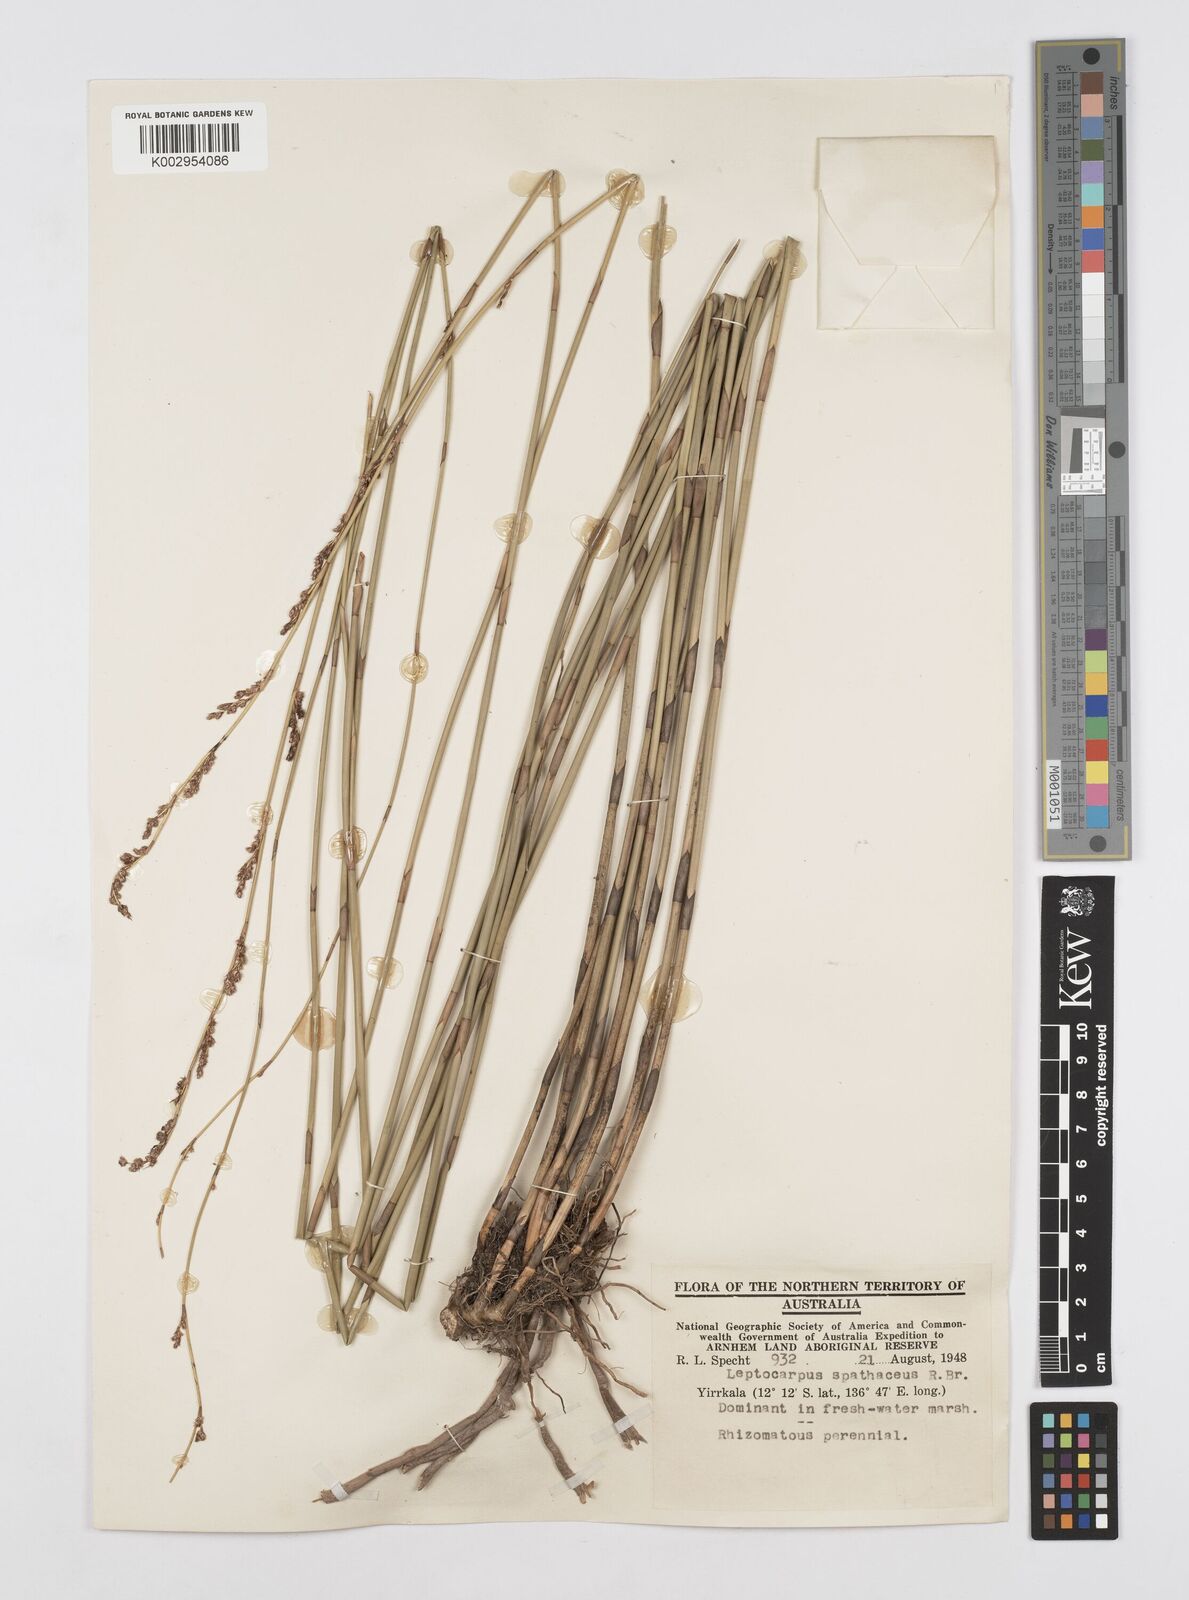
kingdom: Plantae
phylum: Tracheophyta
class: Liliopsida
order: Poales
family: Restionaceae
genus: Dapsilanthus
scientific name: Dapsilanthus ramosus
